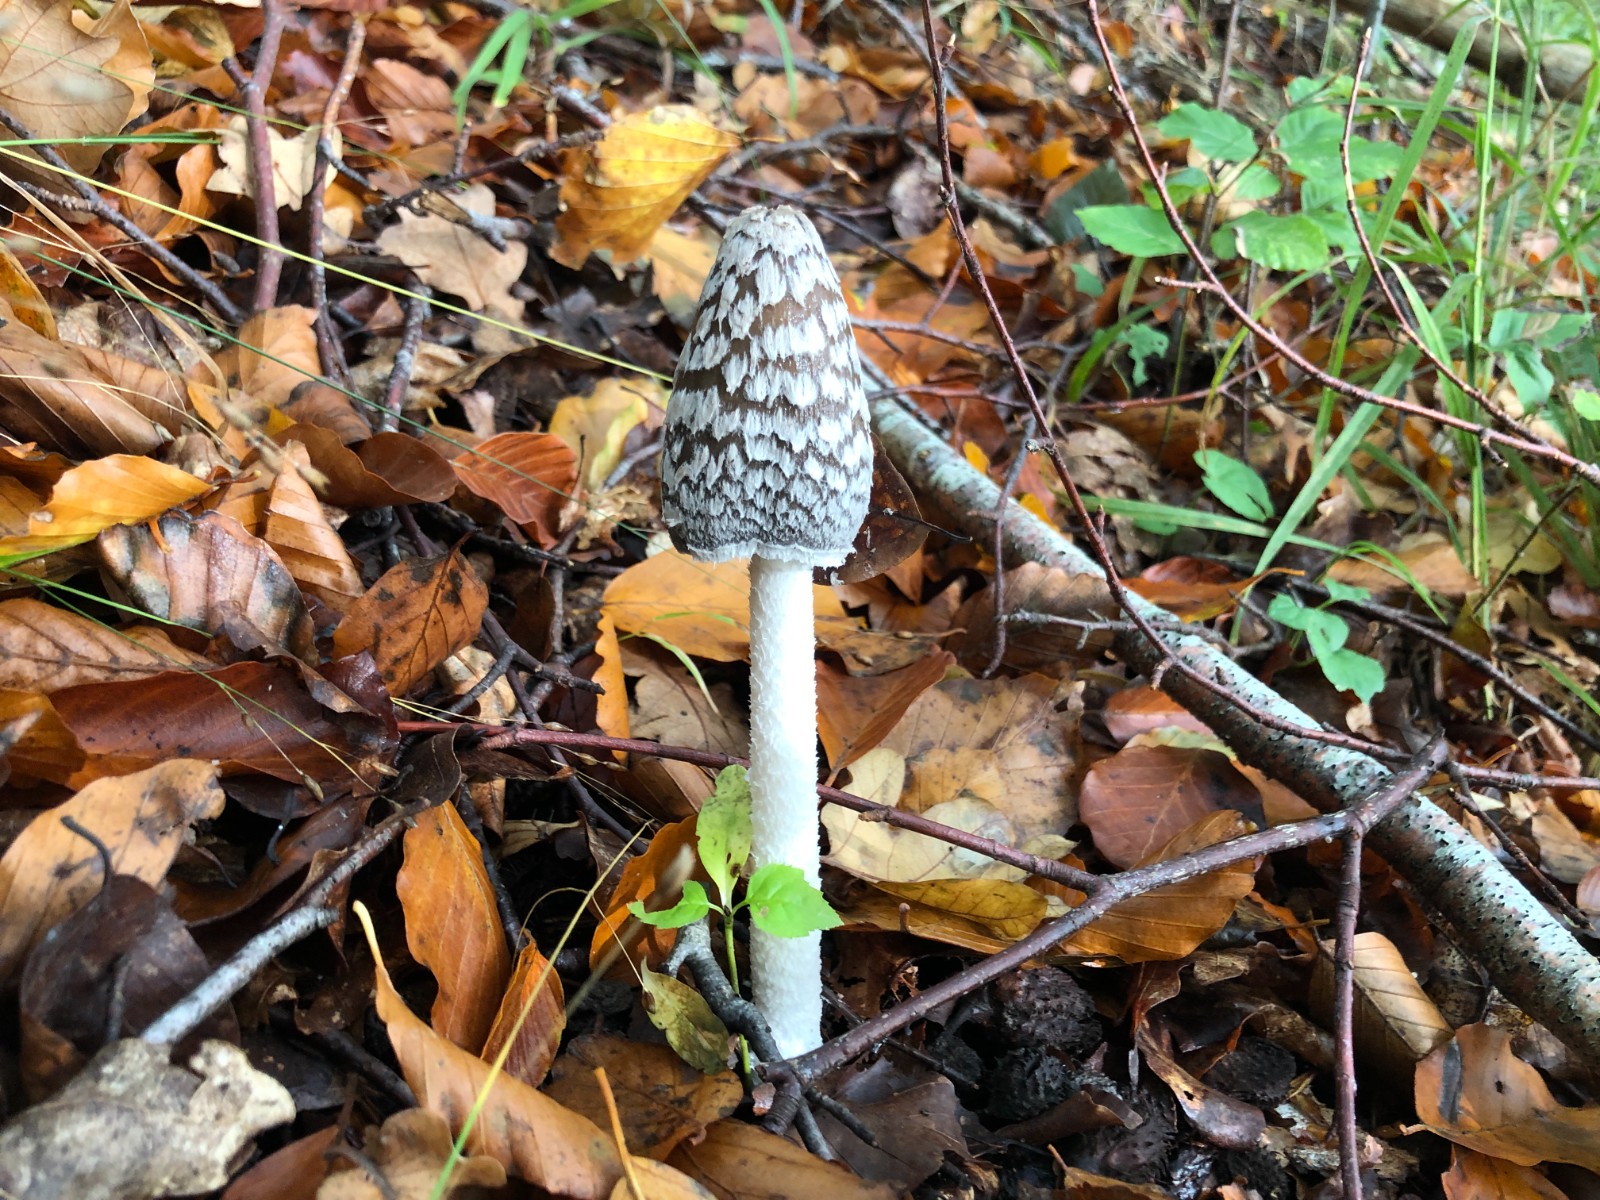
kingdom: Fungi
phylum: Basidiomycota
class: Agaricomycetes
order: Agaricales
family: Psathyrellaceae
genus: Coprinopsis
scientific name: Coprinopsis picacea
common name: skade-blækhat
